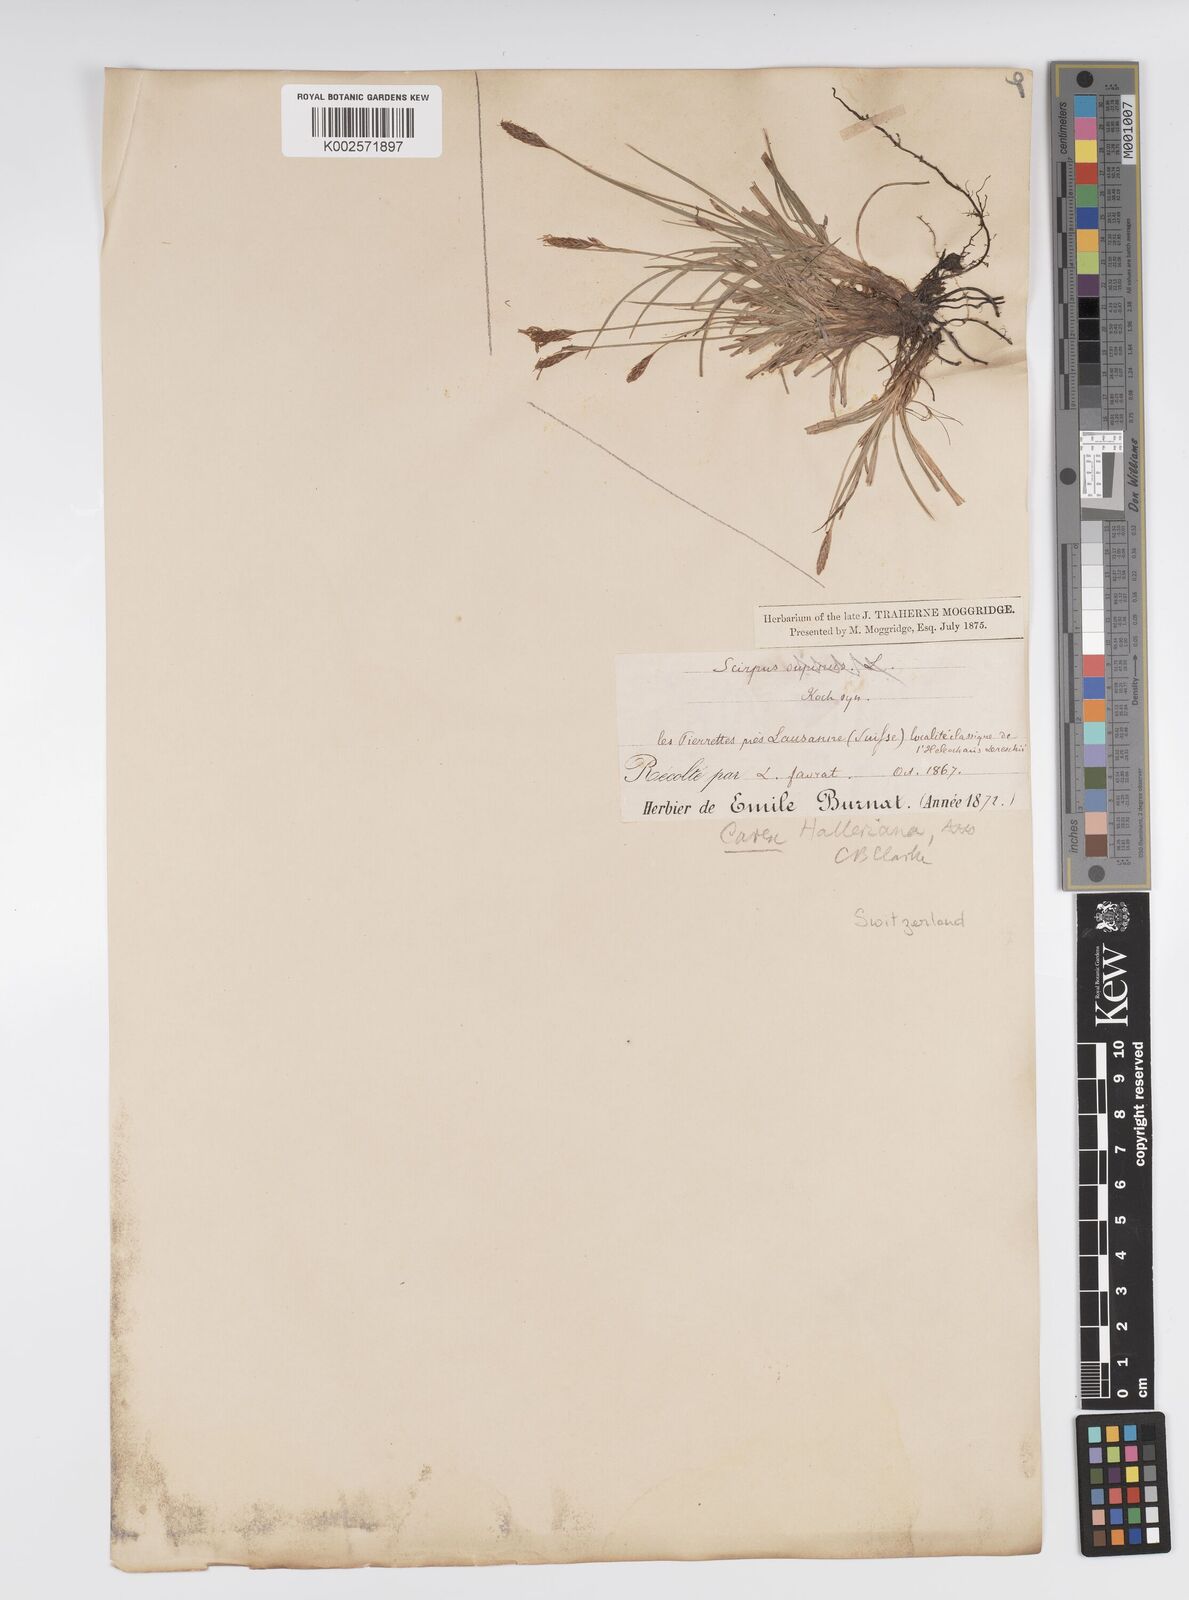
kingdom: Plantae
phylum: Tracheophyta
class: Liliopsida
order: Poales
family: Cyperaceae
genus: Carex
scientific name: Carex halleriana
